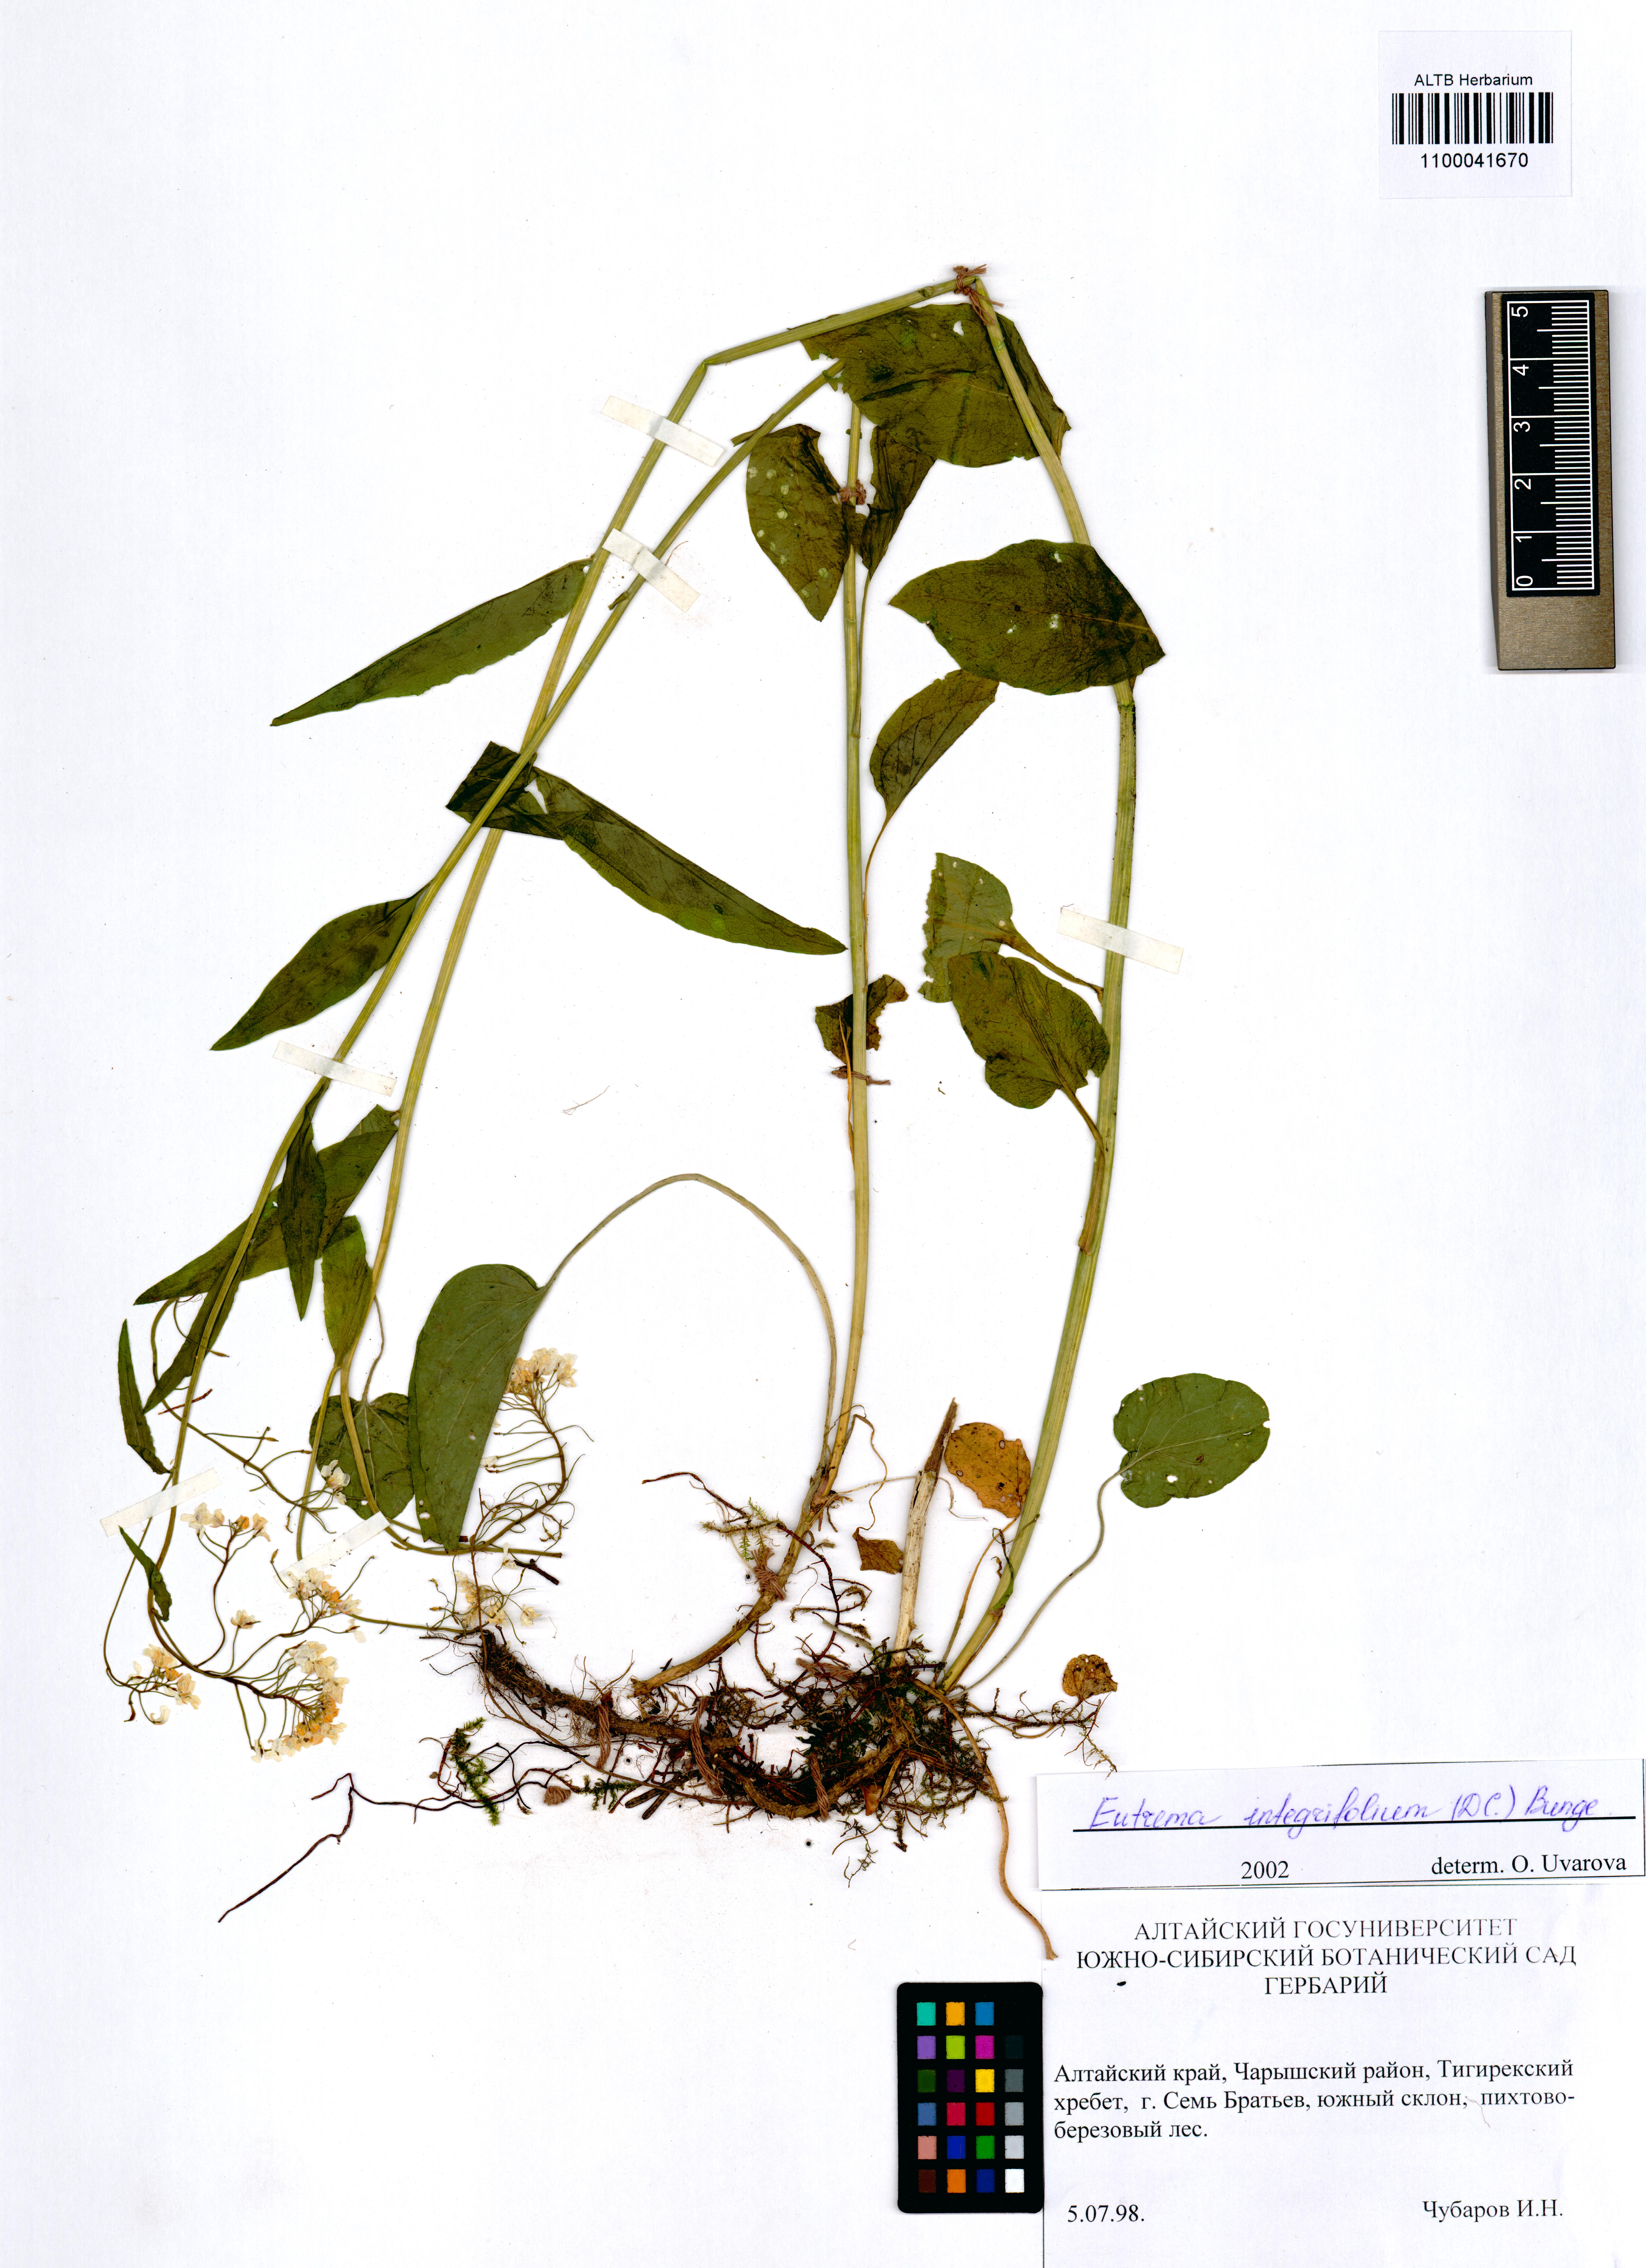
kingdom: Plantae
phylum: Tracheophyta
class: Magnoliopsida
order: Brassicales
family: Brassicaceae
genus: Eutrema
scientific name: Eutrema integrifolium
